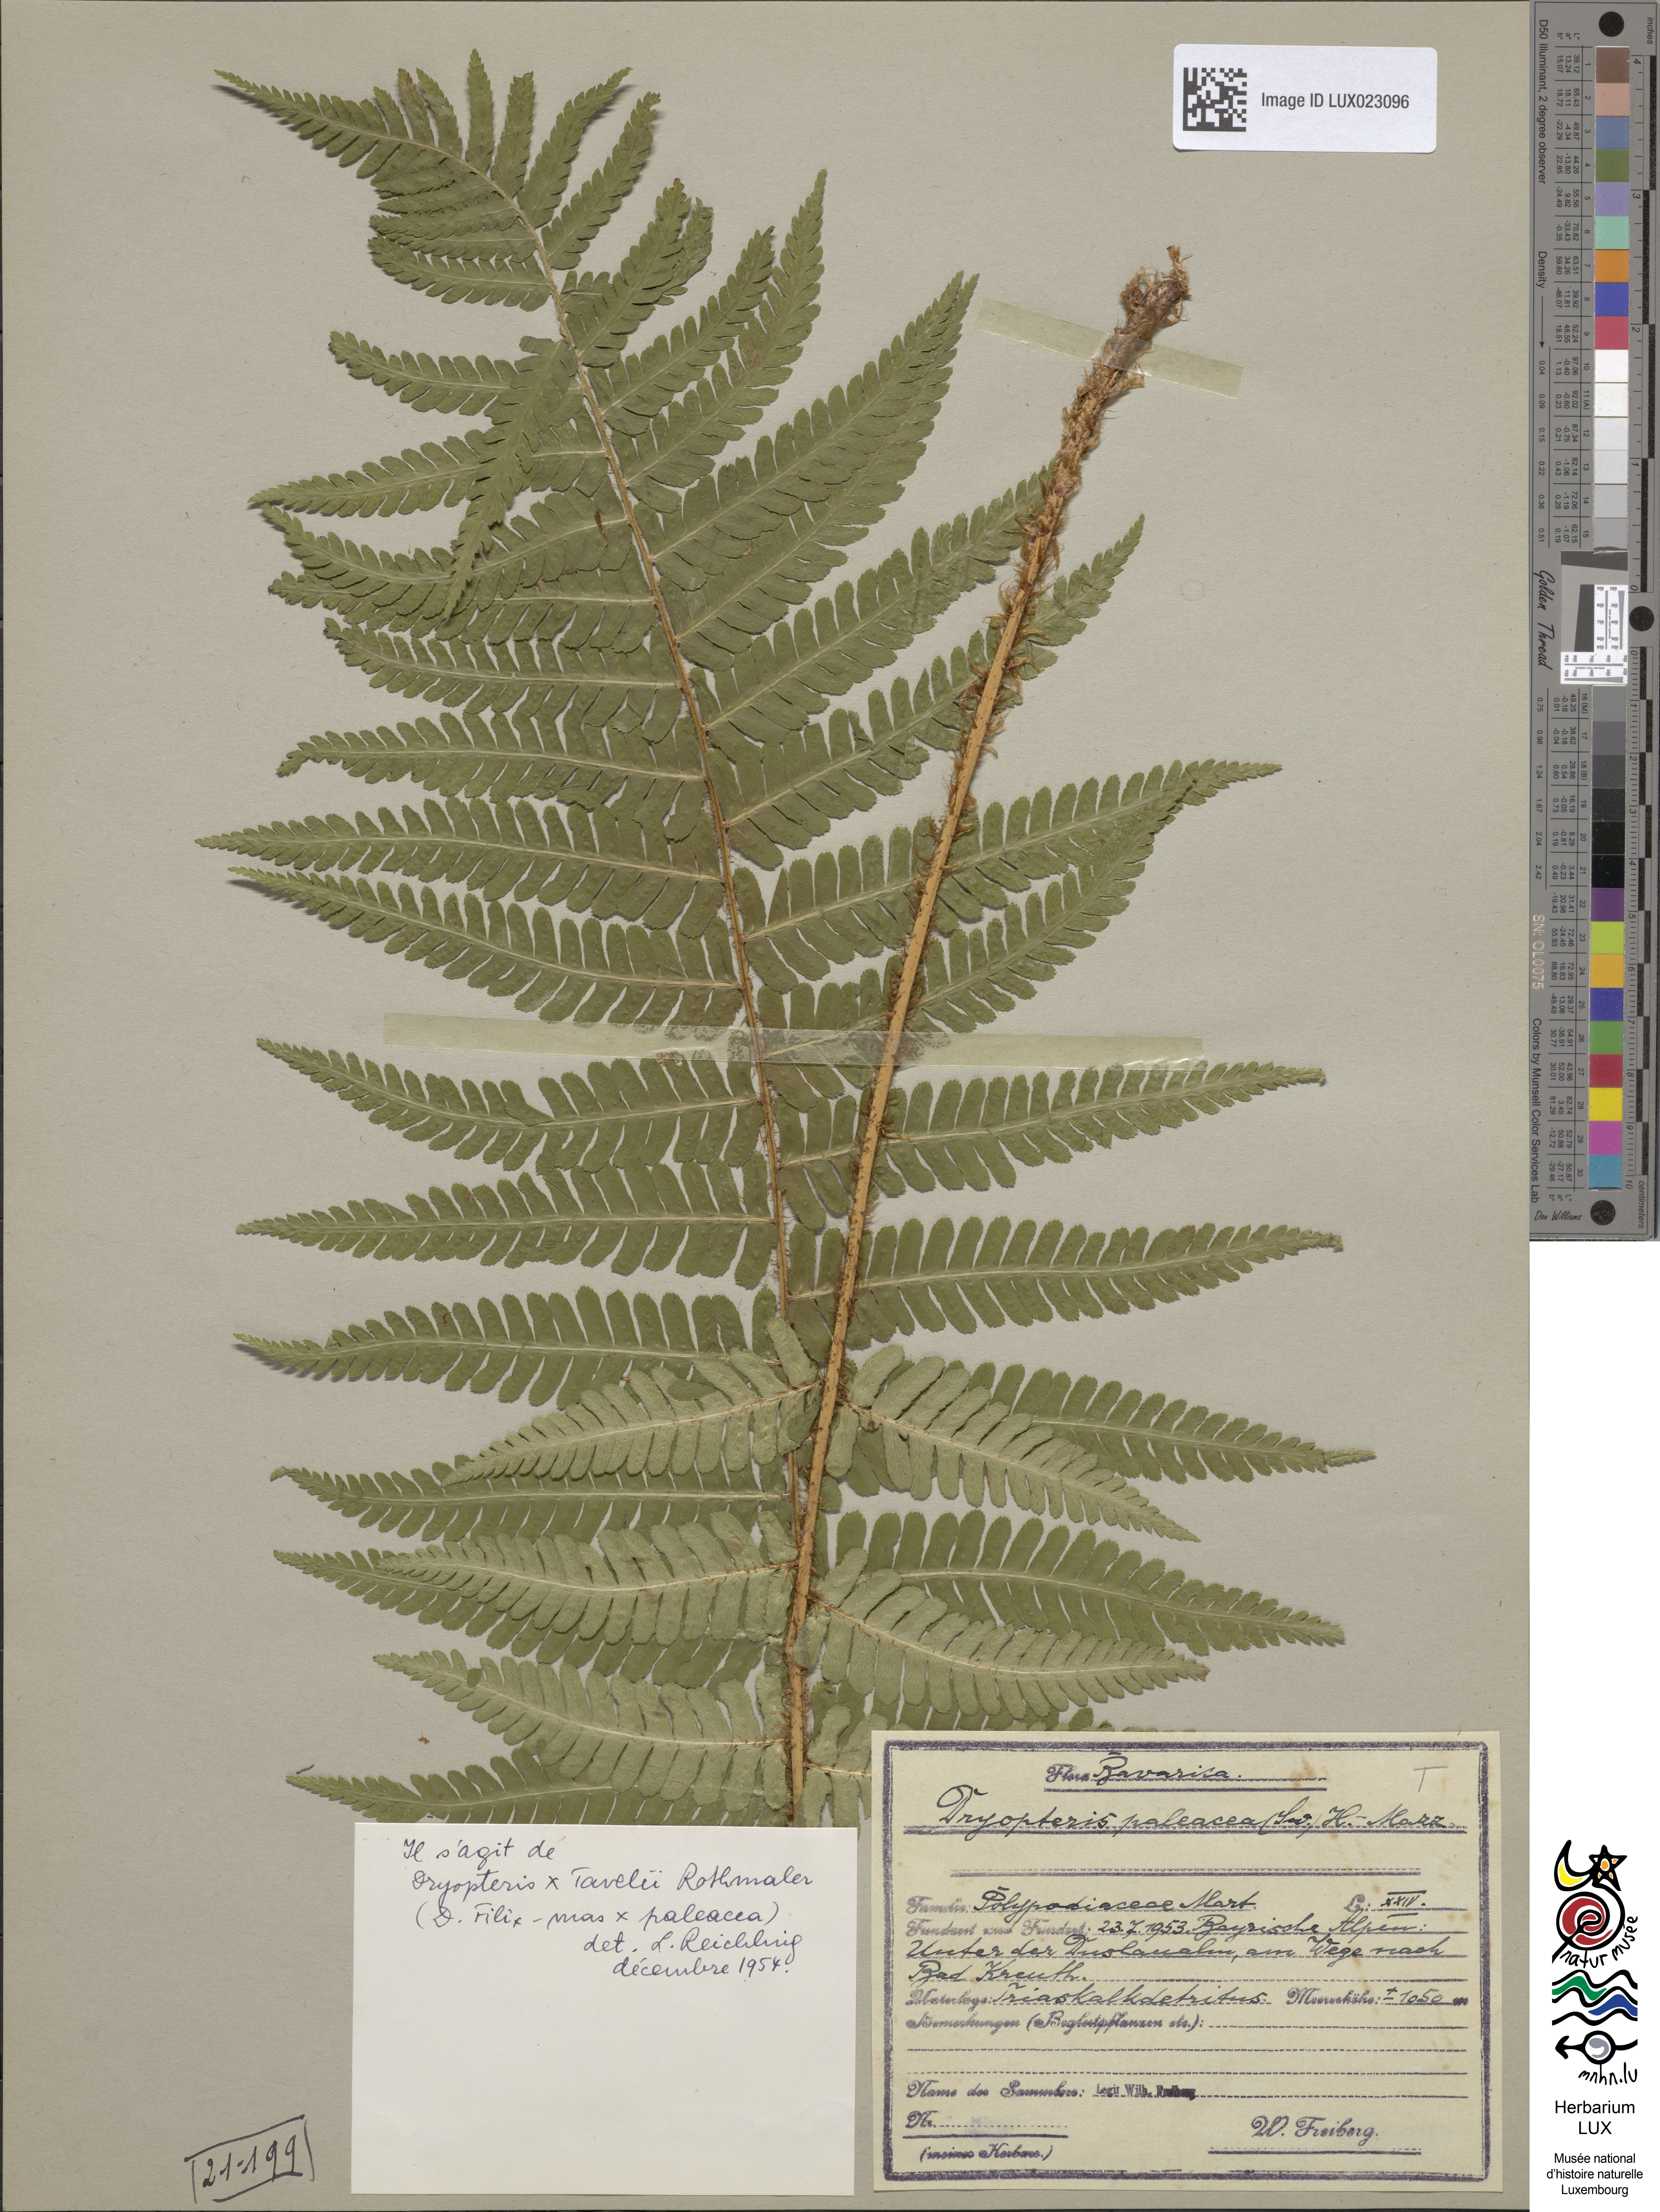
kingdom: Plantae
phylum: Tracheophyta
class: Polypodiopsida
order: Polypodiales
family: Dryopteridaceae
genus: Dryopteris
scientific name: Dryopteris borreri
